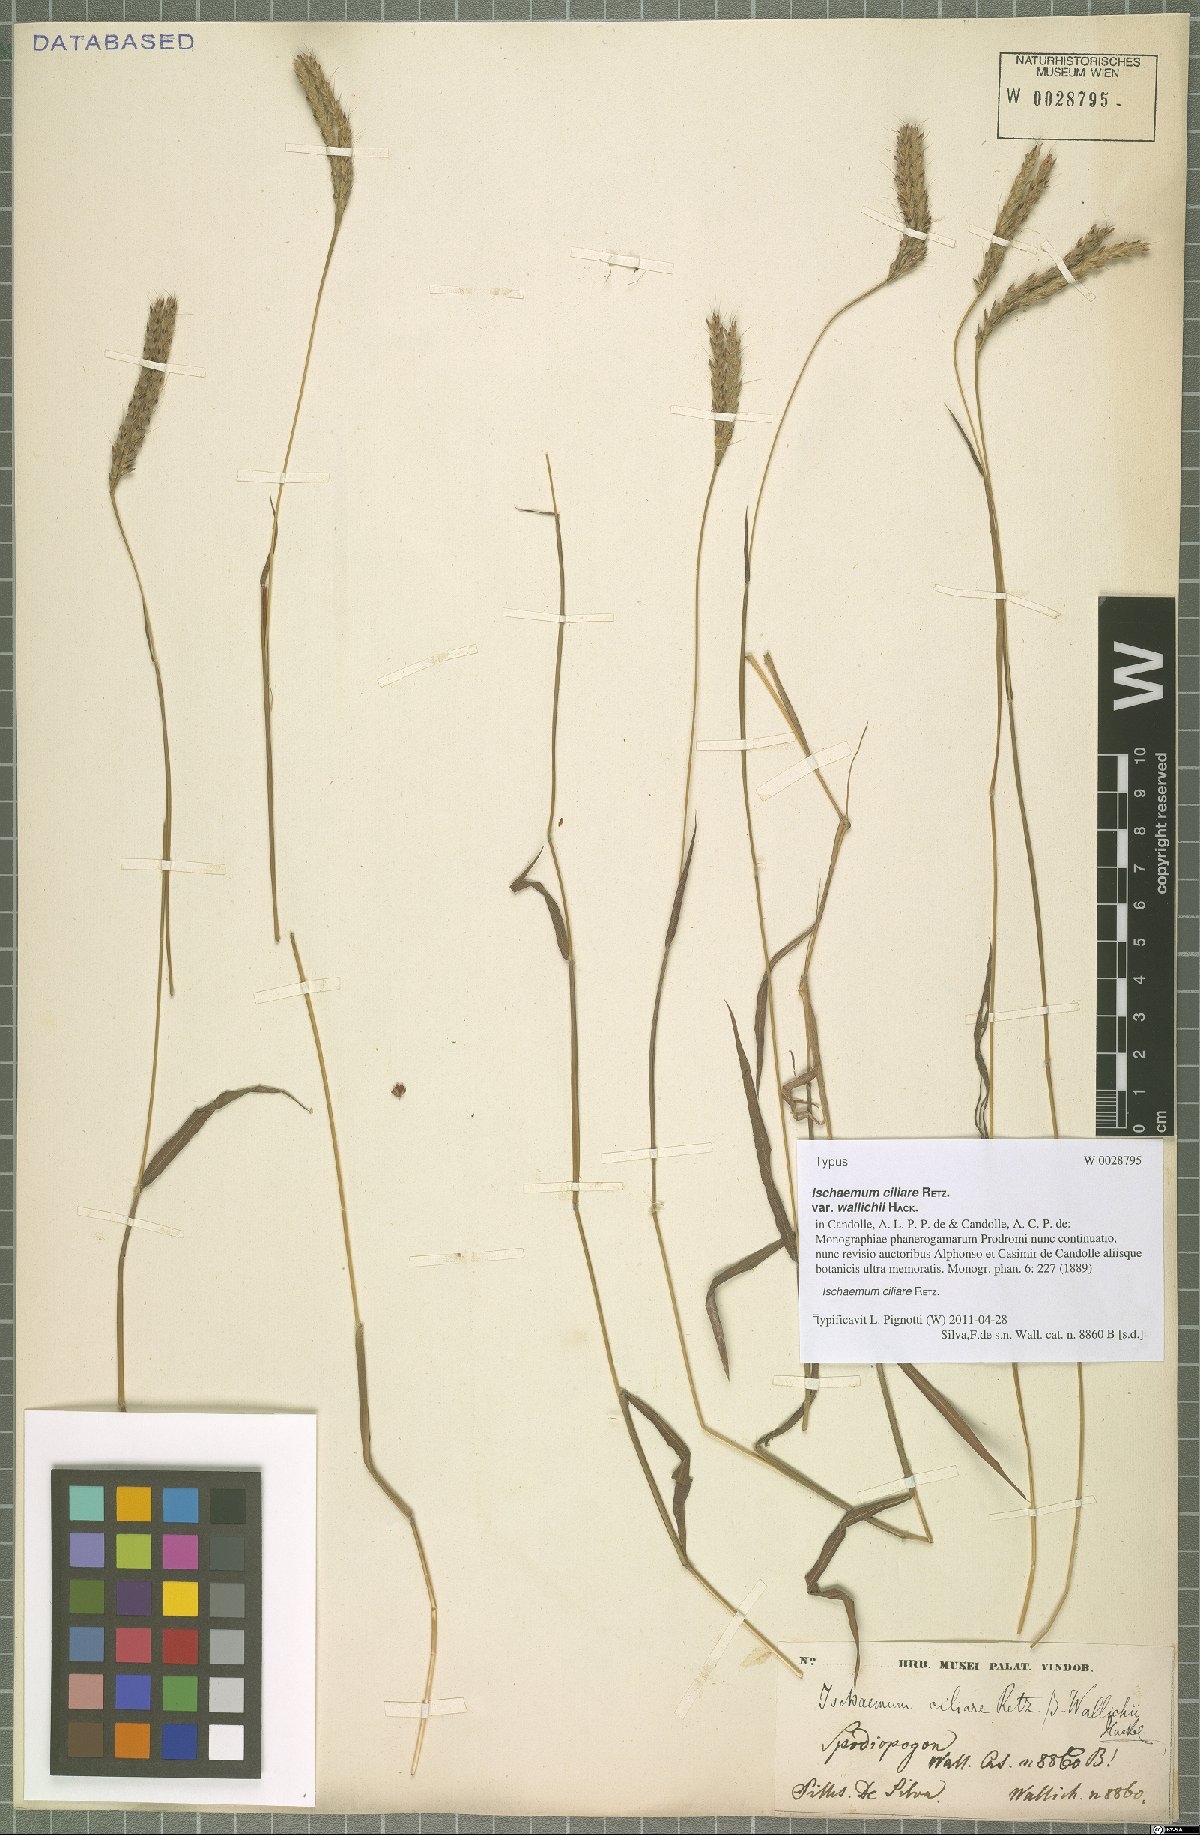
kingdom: Plantae
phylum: Tracheophyta
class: Liliopsida
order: Poales
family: Poaceae
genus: Ischaemum
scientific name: Ischaemum ciliare
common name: Grass
